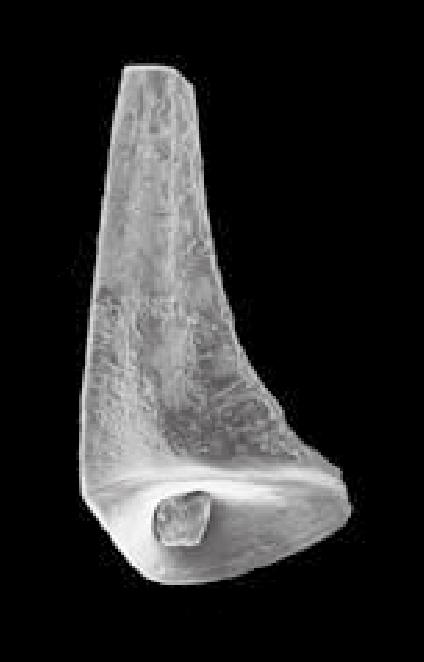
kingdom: Animalia
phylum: Chordata
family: Protopanderodontidae
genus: Juanognathus
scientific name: Juanognathus
